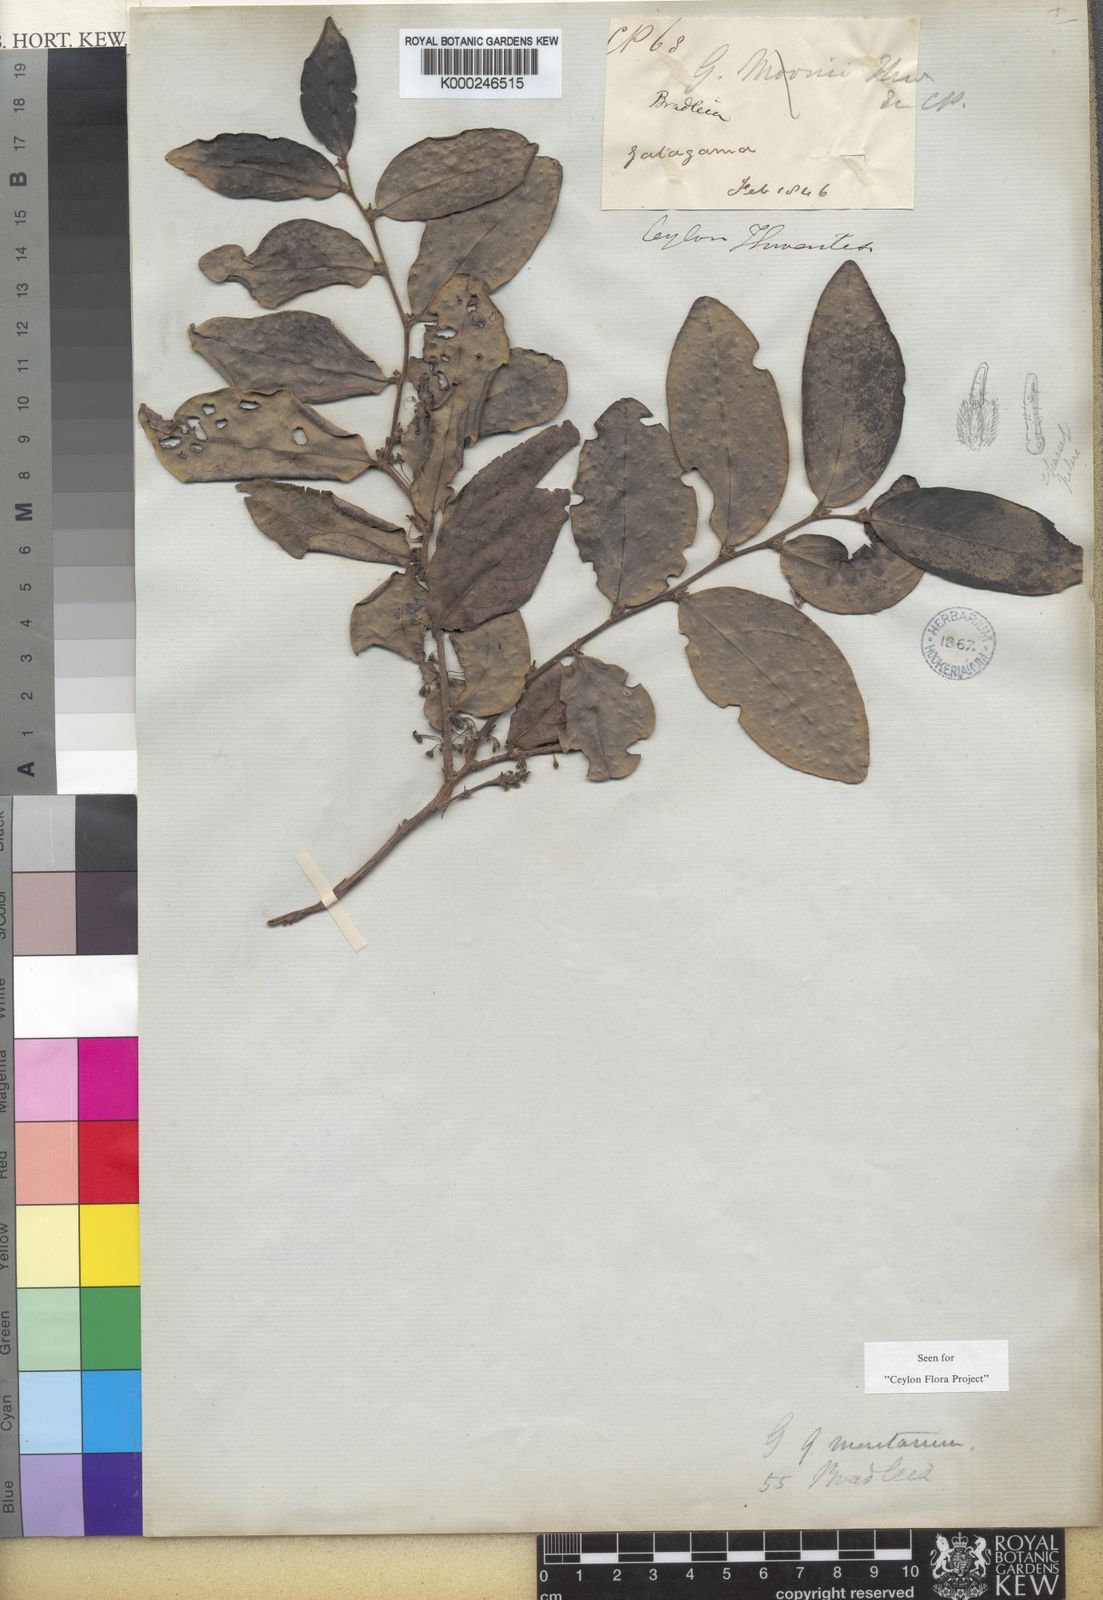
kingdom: Plantae
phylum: Tracheophyta
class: Magnoliopsida
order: Malpighiales
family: Phyllanthaceae
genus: Glochidion
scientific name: Glochidion moonii
